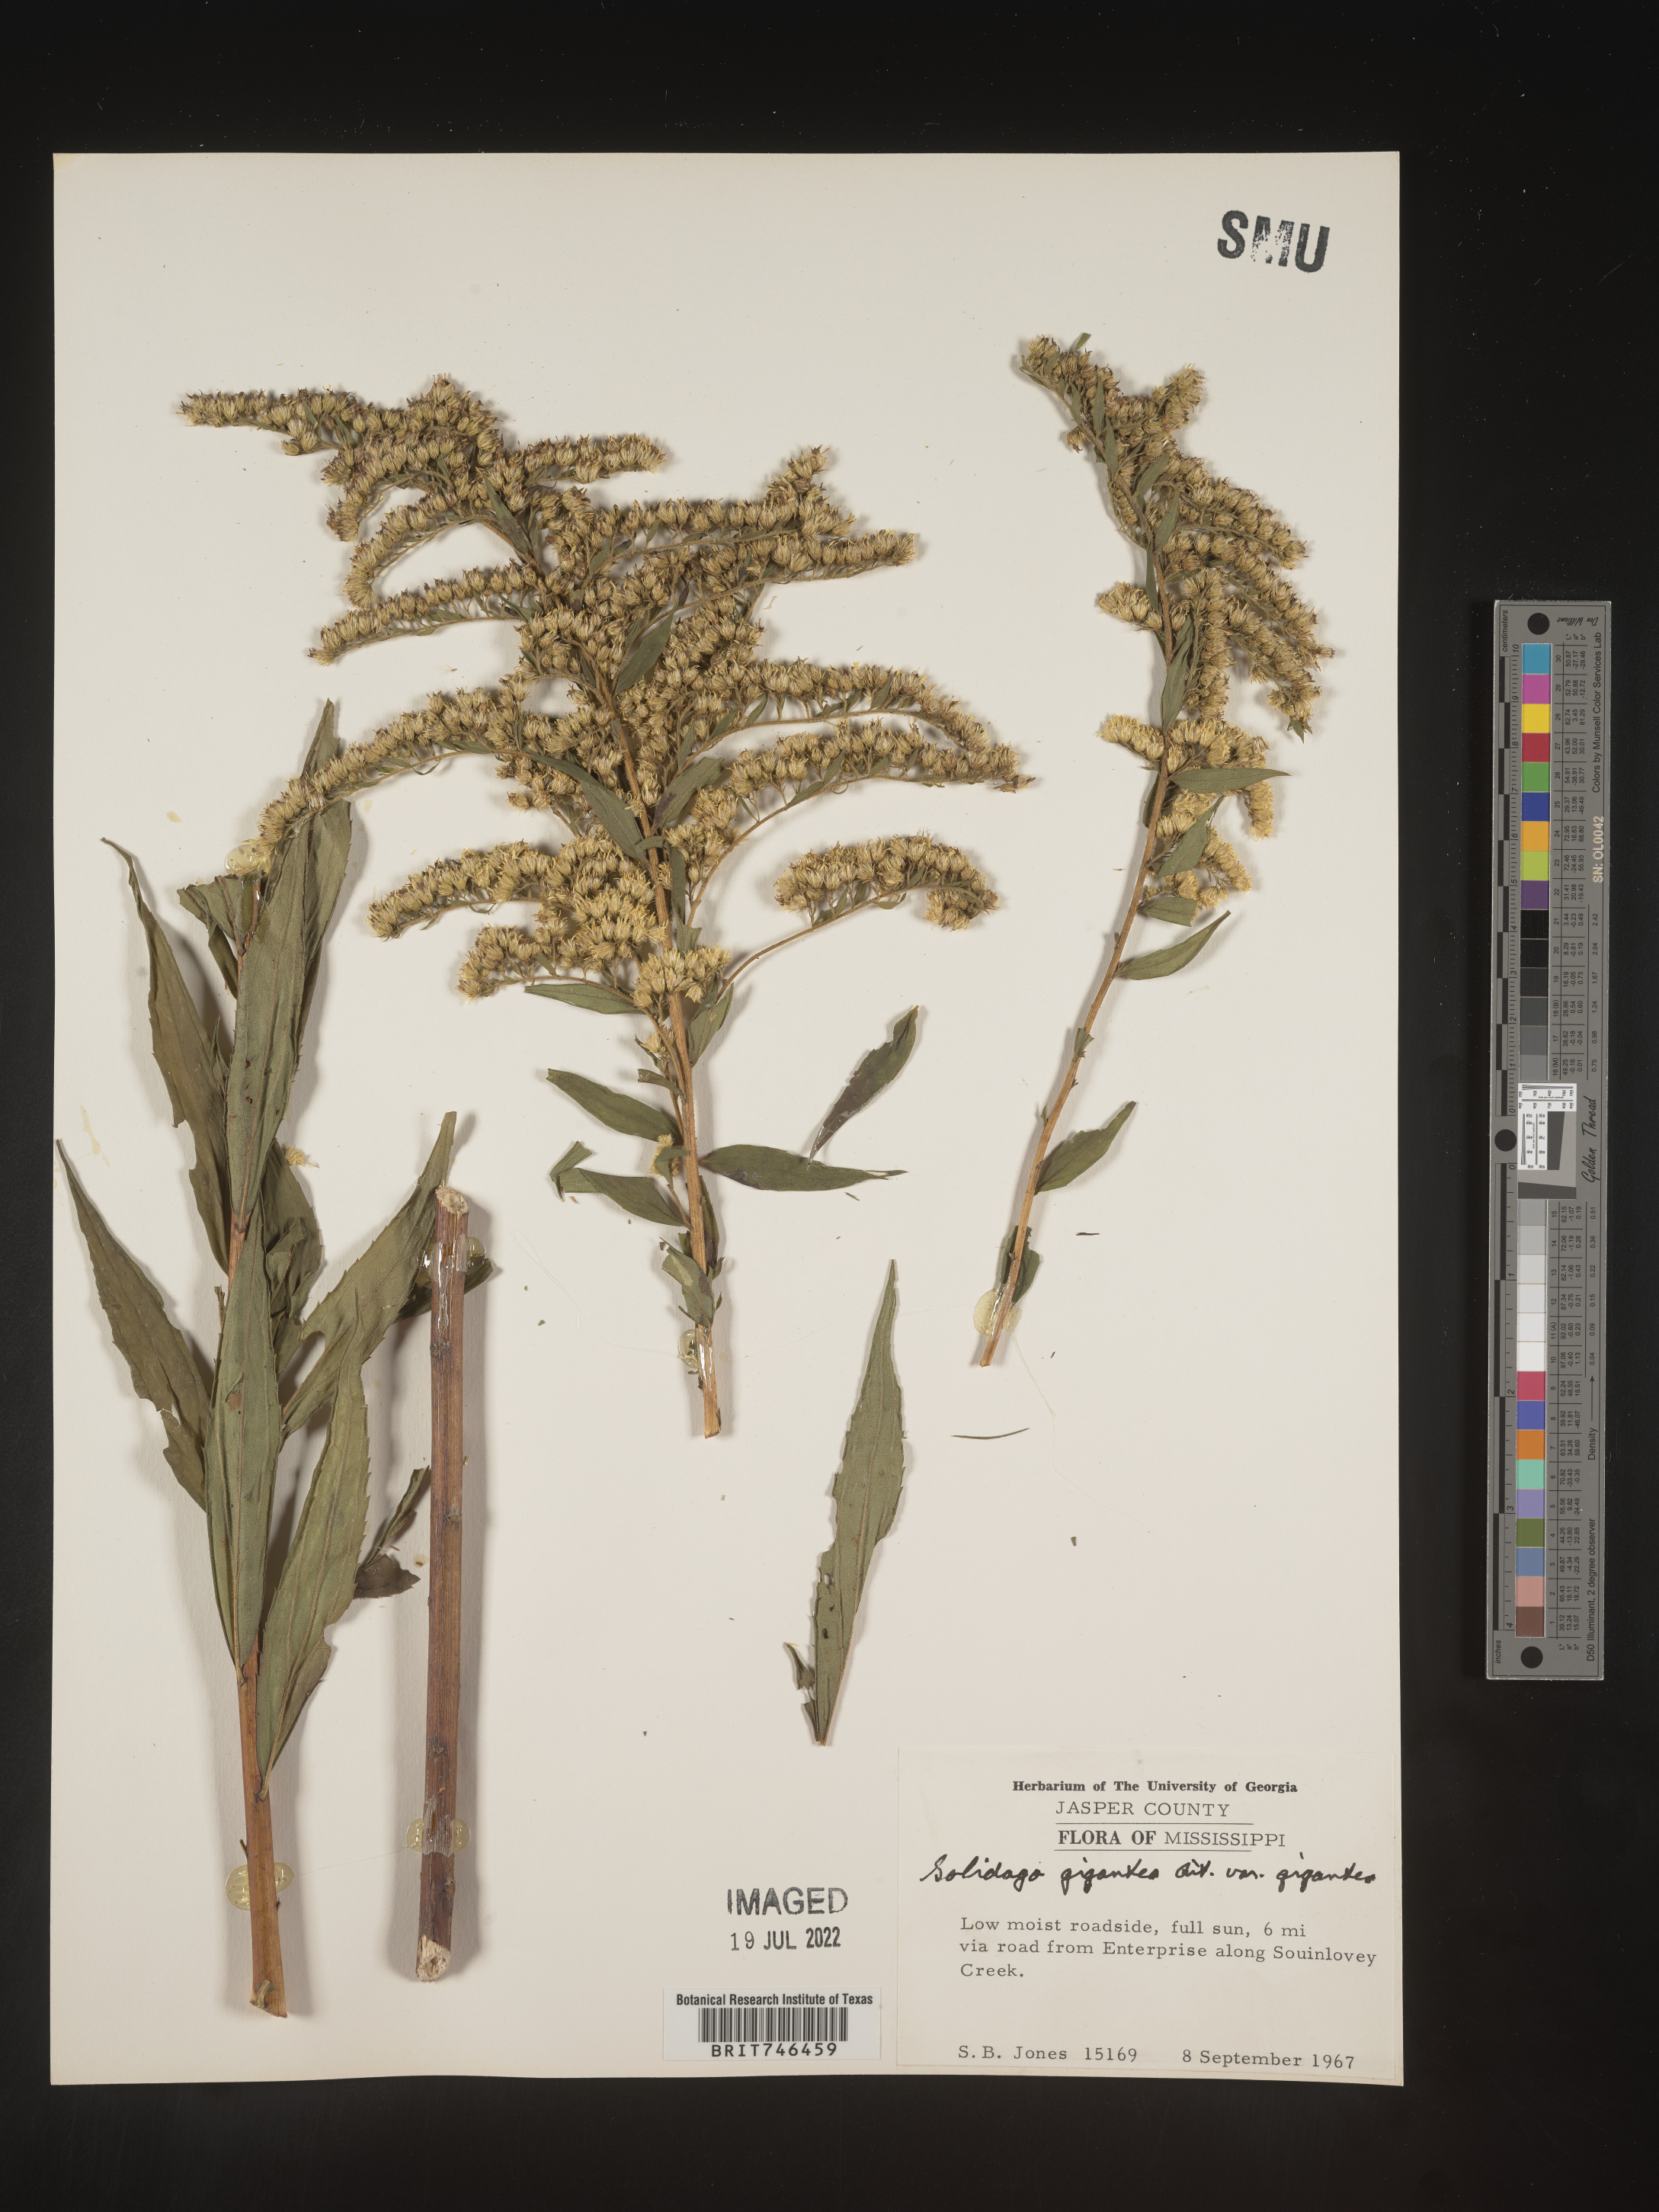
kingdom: Plantae
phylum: Tracheophyta
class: Magnoliopsida
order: Asterales
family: Asteraceae
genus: Solidago
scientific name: Solidago gigantea
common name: Giant goldenrod
